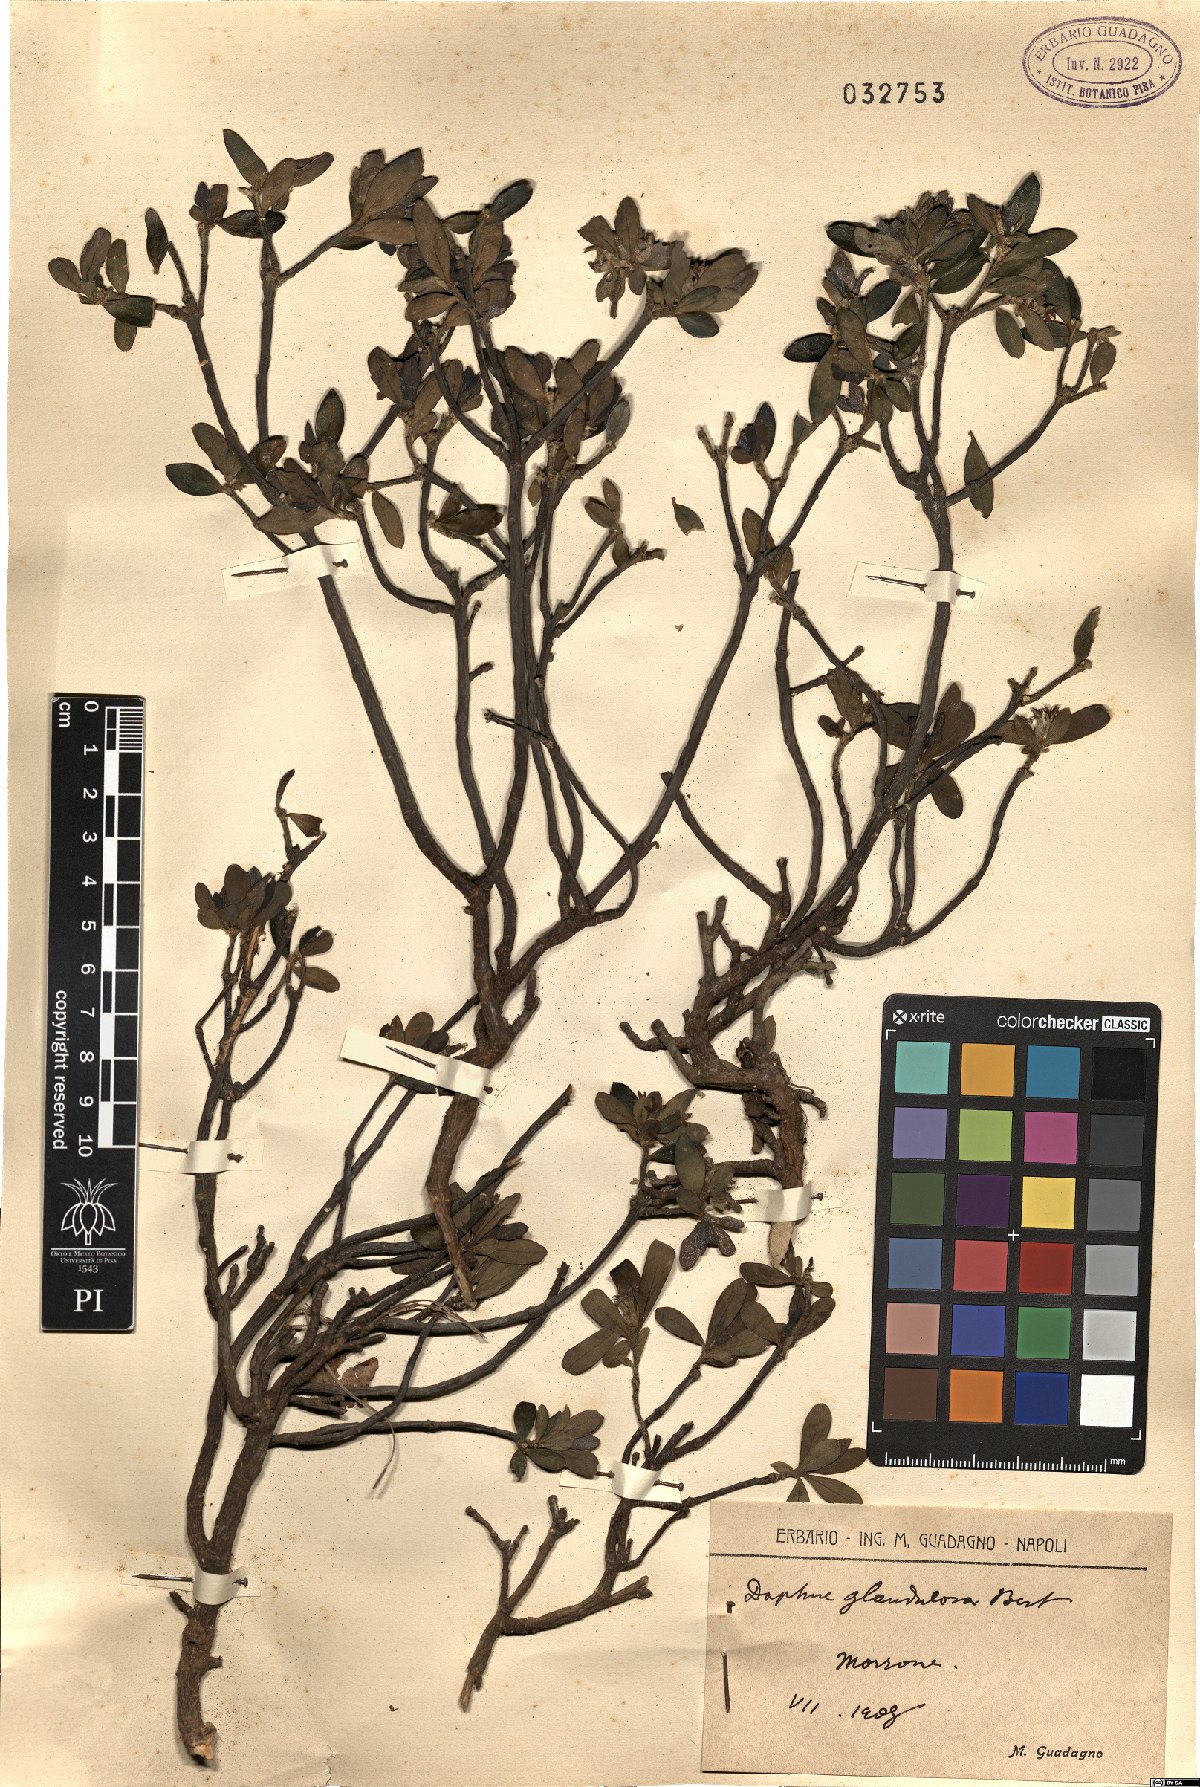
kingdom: Plantae
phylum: Tracheophyta
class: Magnoliopsida
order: Malvales
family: Thymelaeaceae
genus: Daphne
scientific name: Daphne oleoides
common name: Spurge-olive
